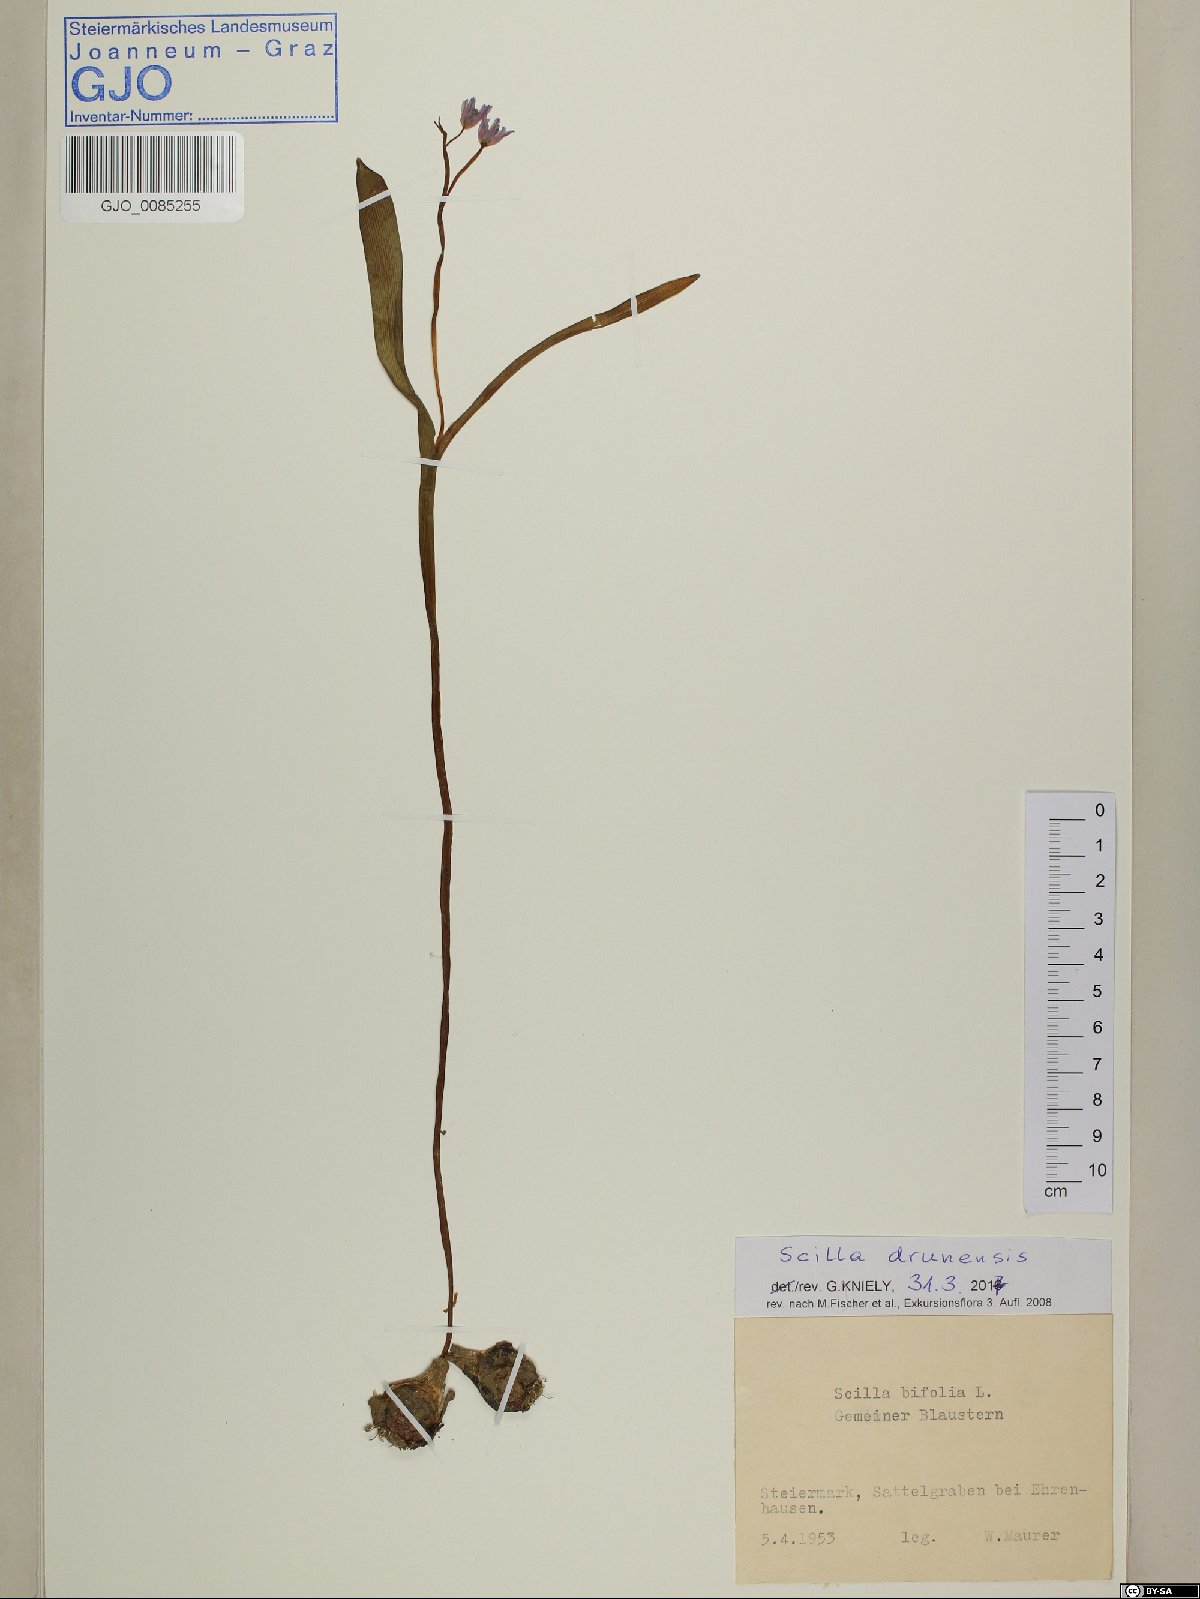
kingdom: Plantae
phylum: Tracheophyta
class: Liliopsida
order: Asparagales
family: Asparagaceae
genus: Scilla
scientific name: Scilla bifolia
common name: Alpine squill
